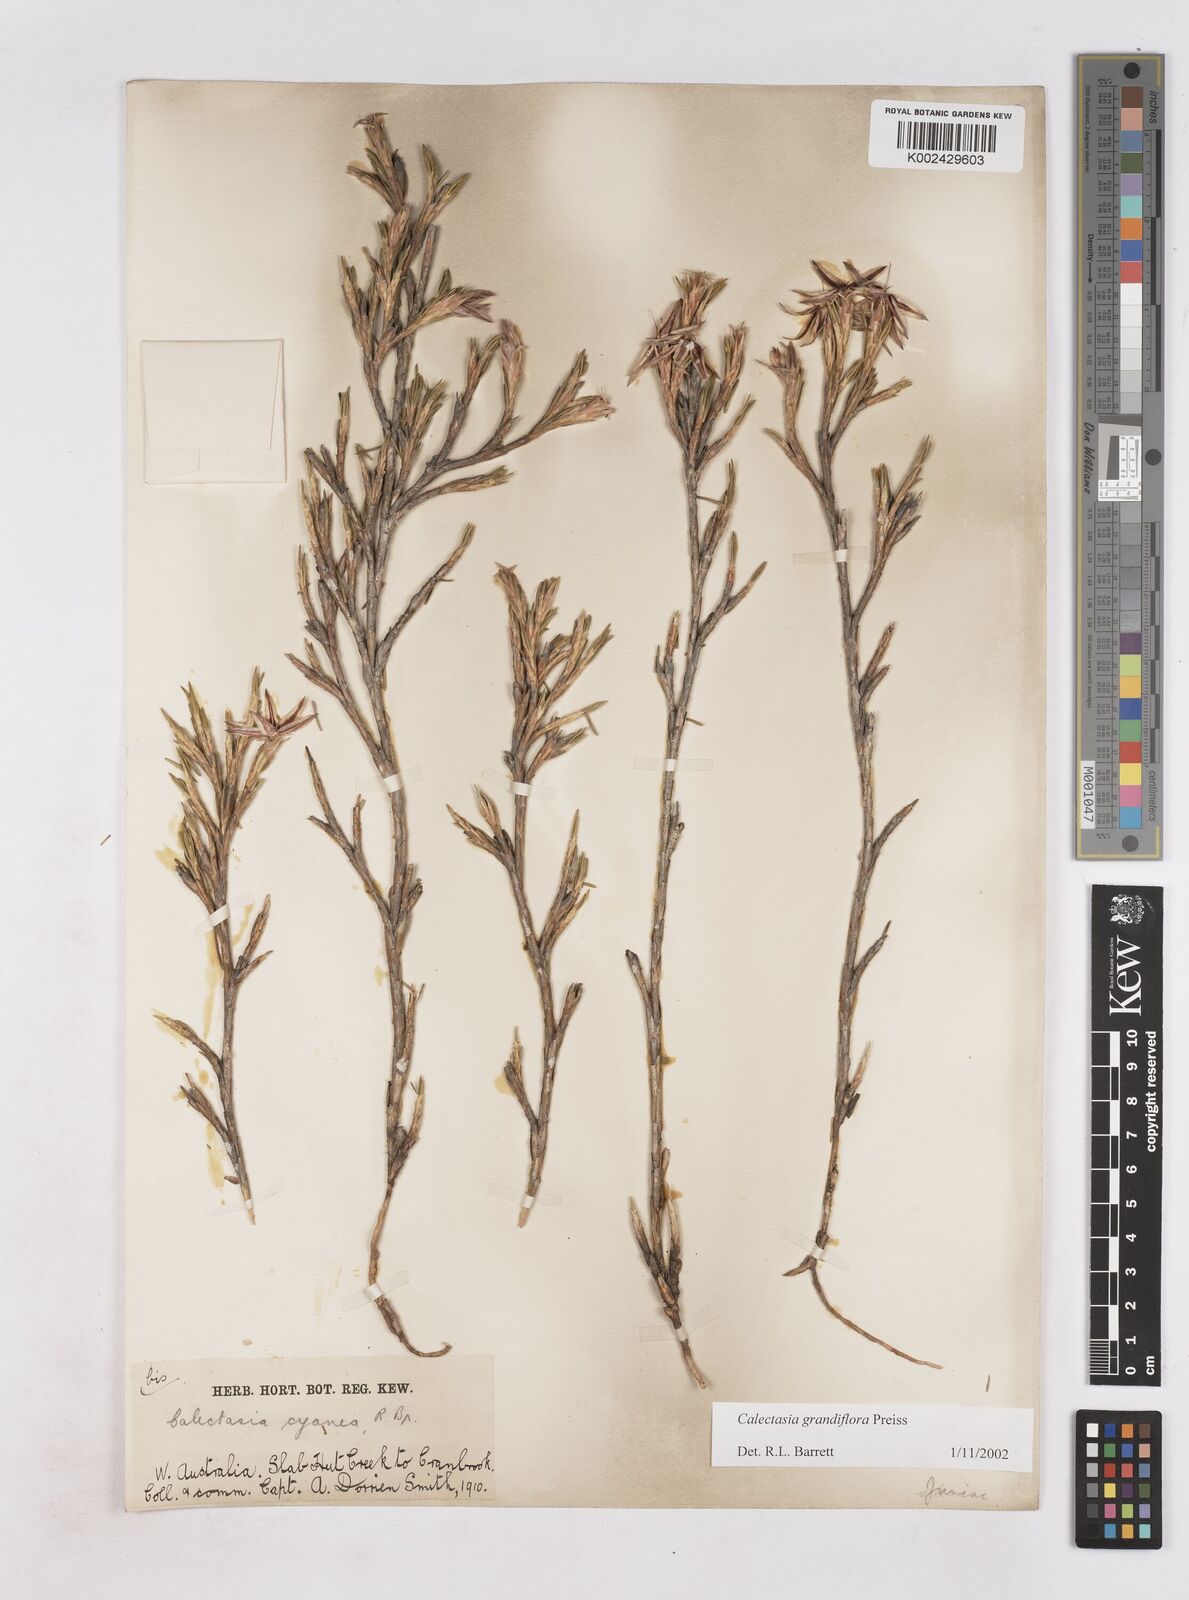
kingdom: Plantae
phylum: Tracheophyta
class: Liliopsida
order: Arecales
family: Dasypogonaceae
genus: Calectasia
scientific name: Calectasia grandiflora
